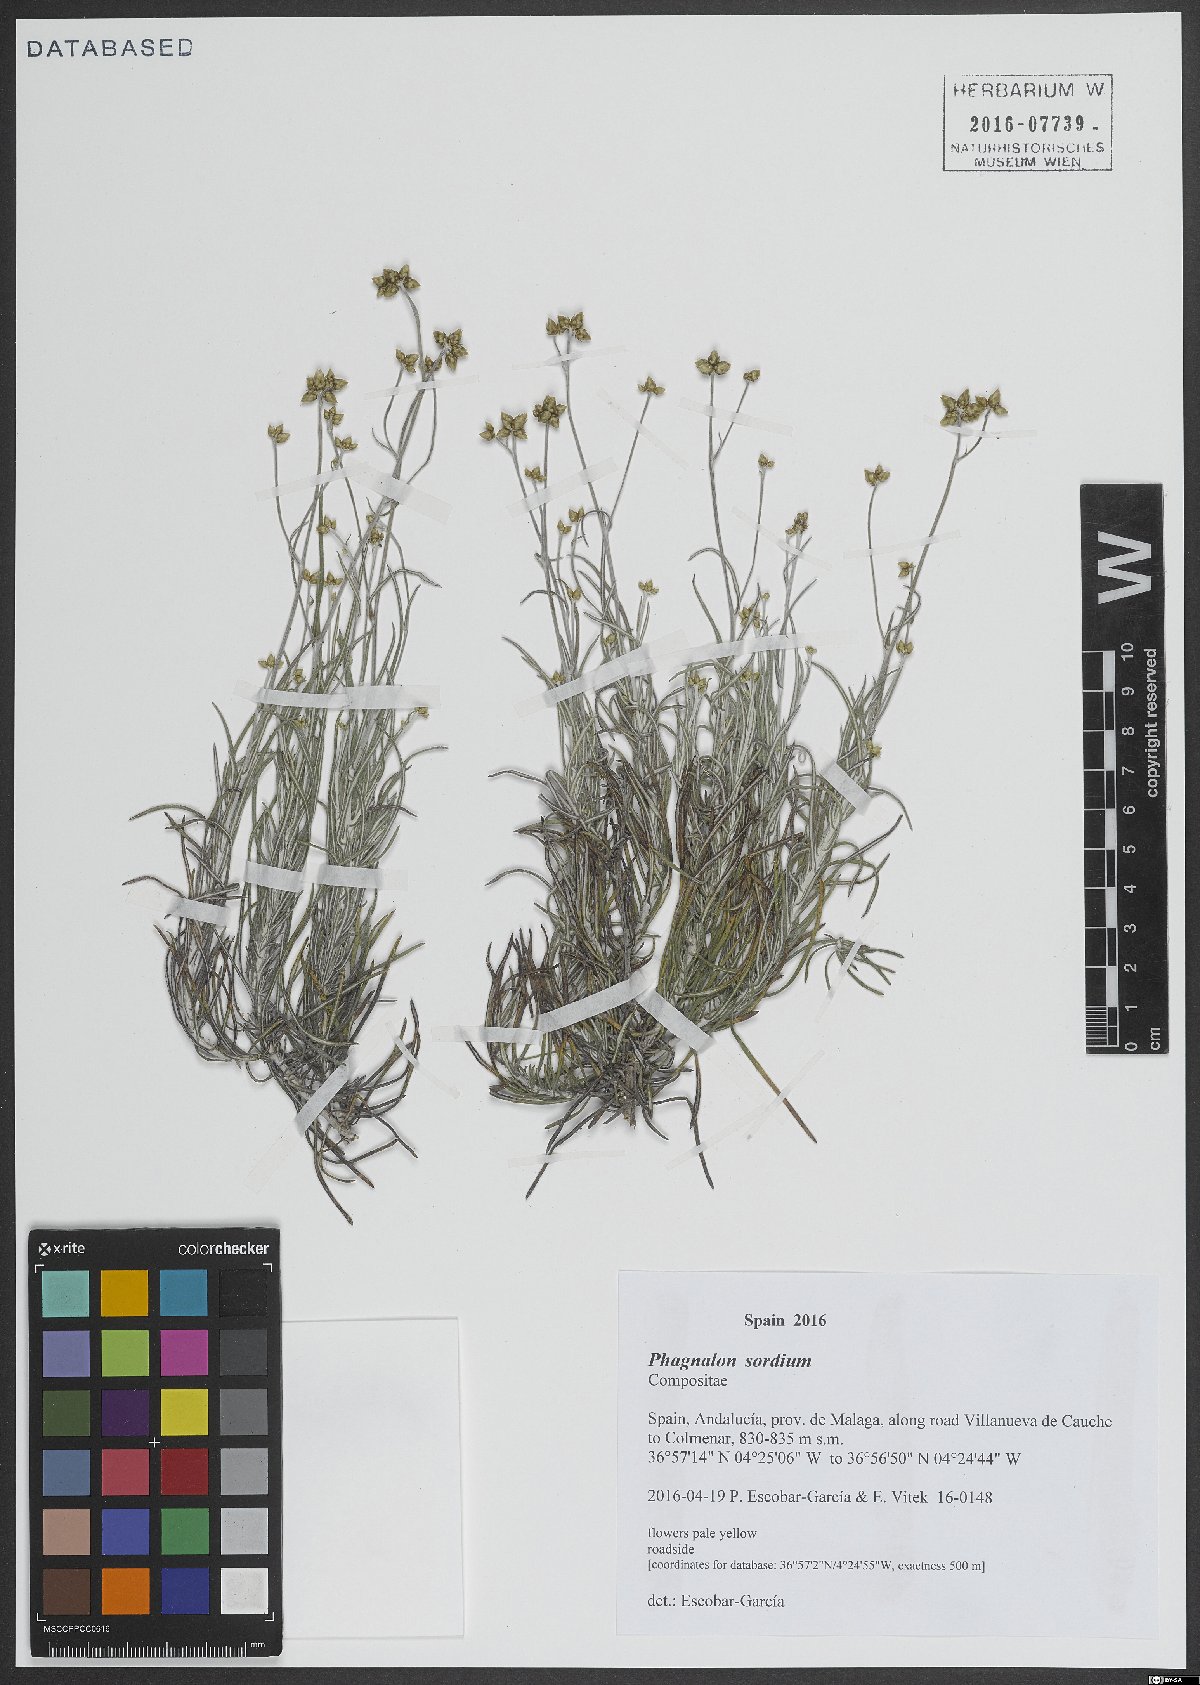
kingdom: Plantae
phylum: Tracheophyta
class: Magnoliopsida
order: Asterales
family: Asteraceae
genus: Phagnalon
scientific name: Phagnalon sordidum
